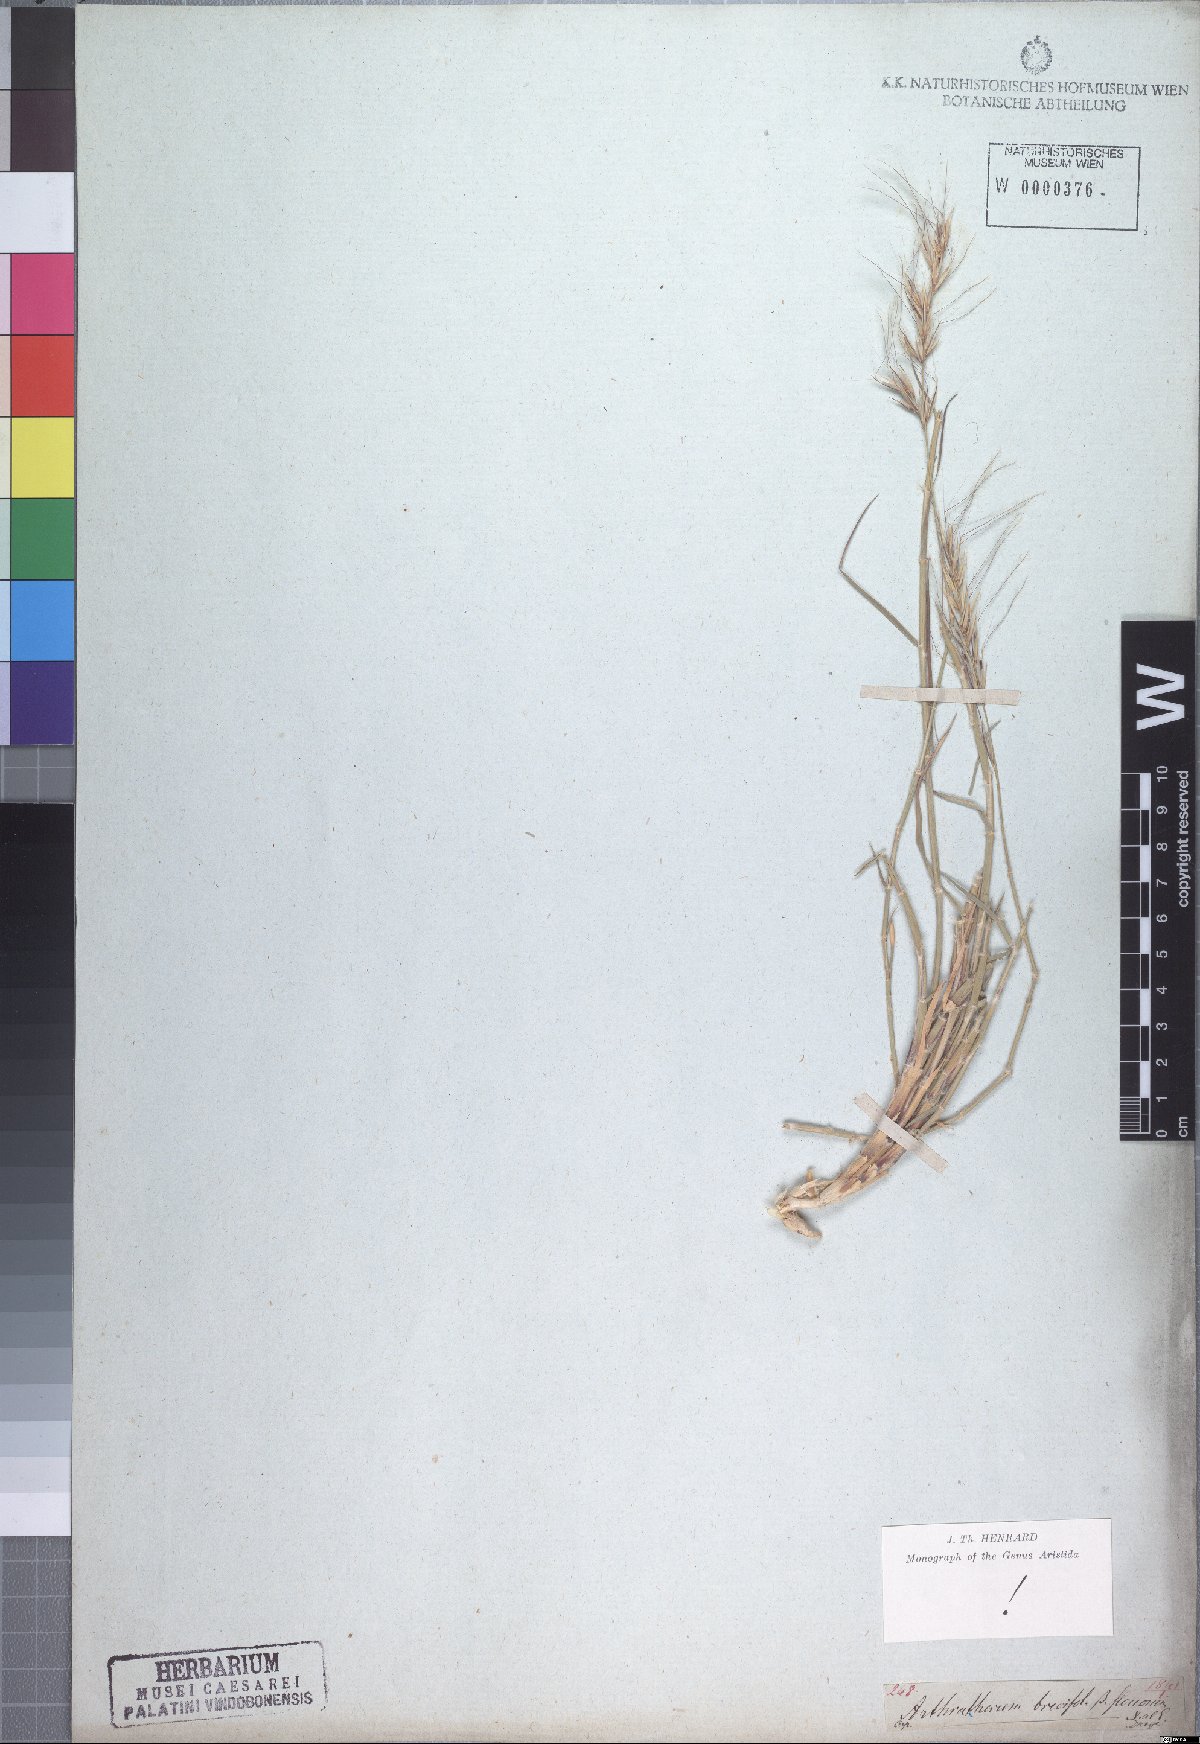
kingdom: Plantae
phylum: Tracheophyta
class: Liliopsida
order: Poales
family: Poaceae
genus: Stipagrostis
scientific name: Stipagrostis brevifolia
